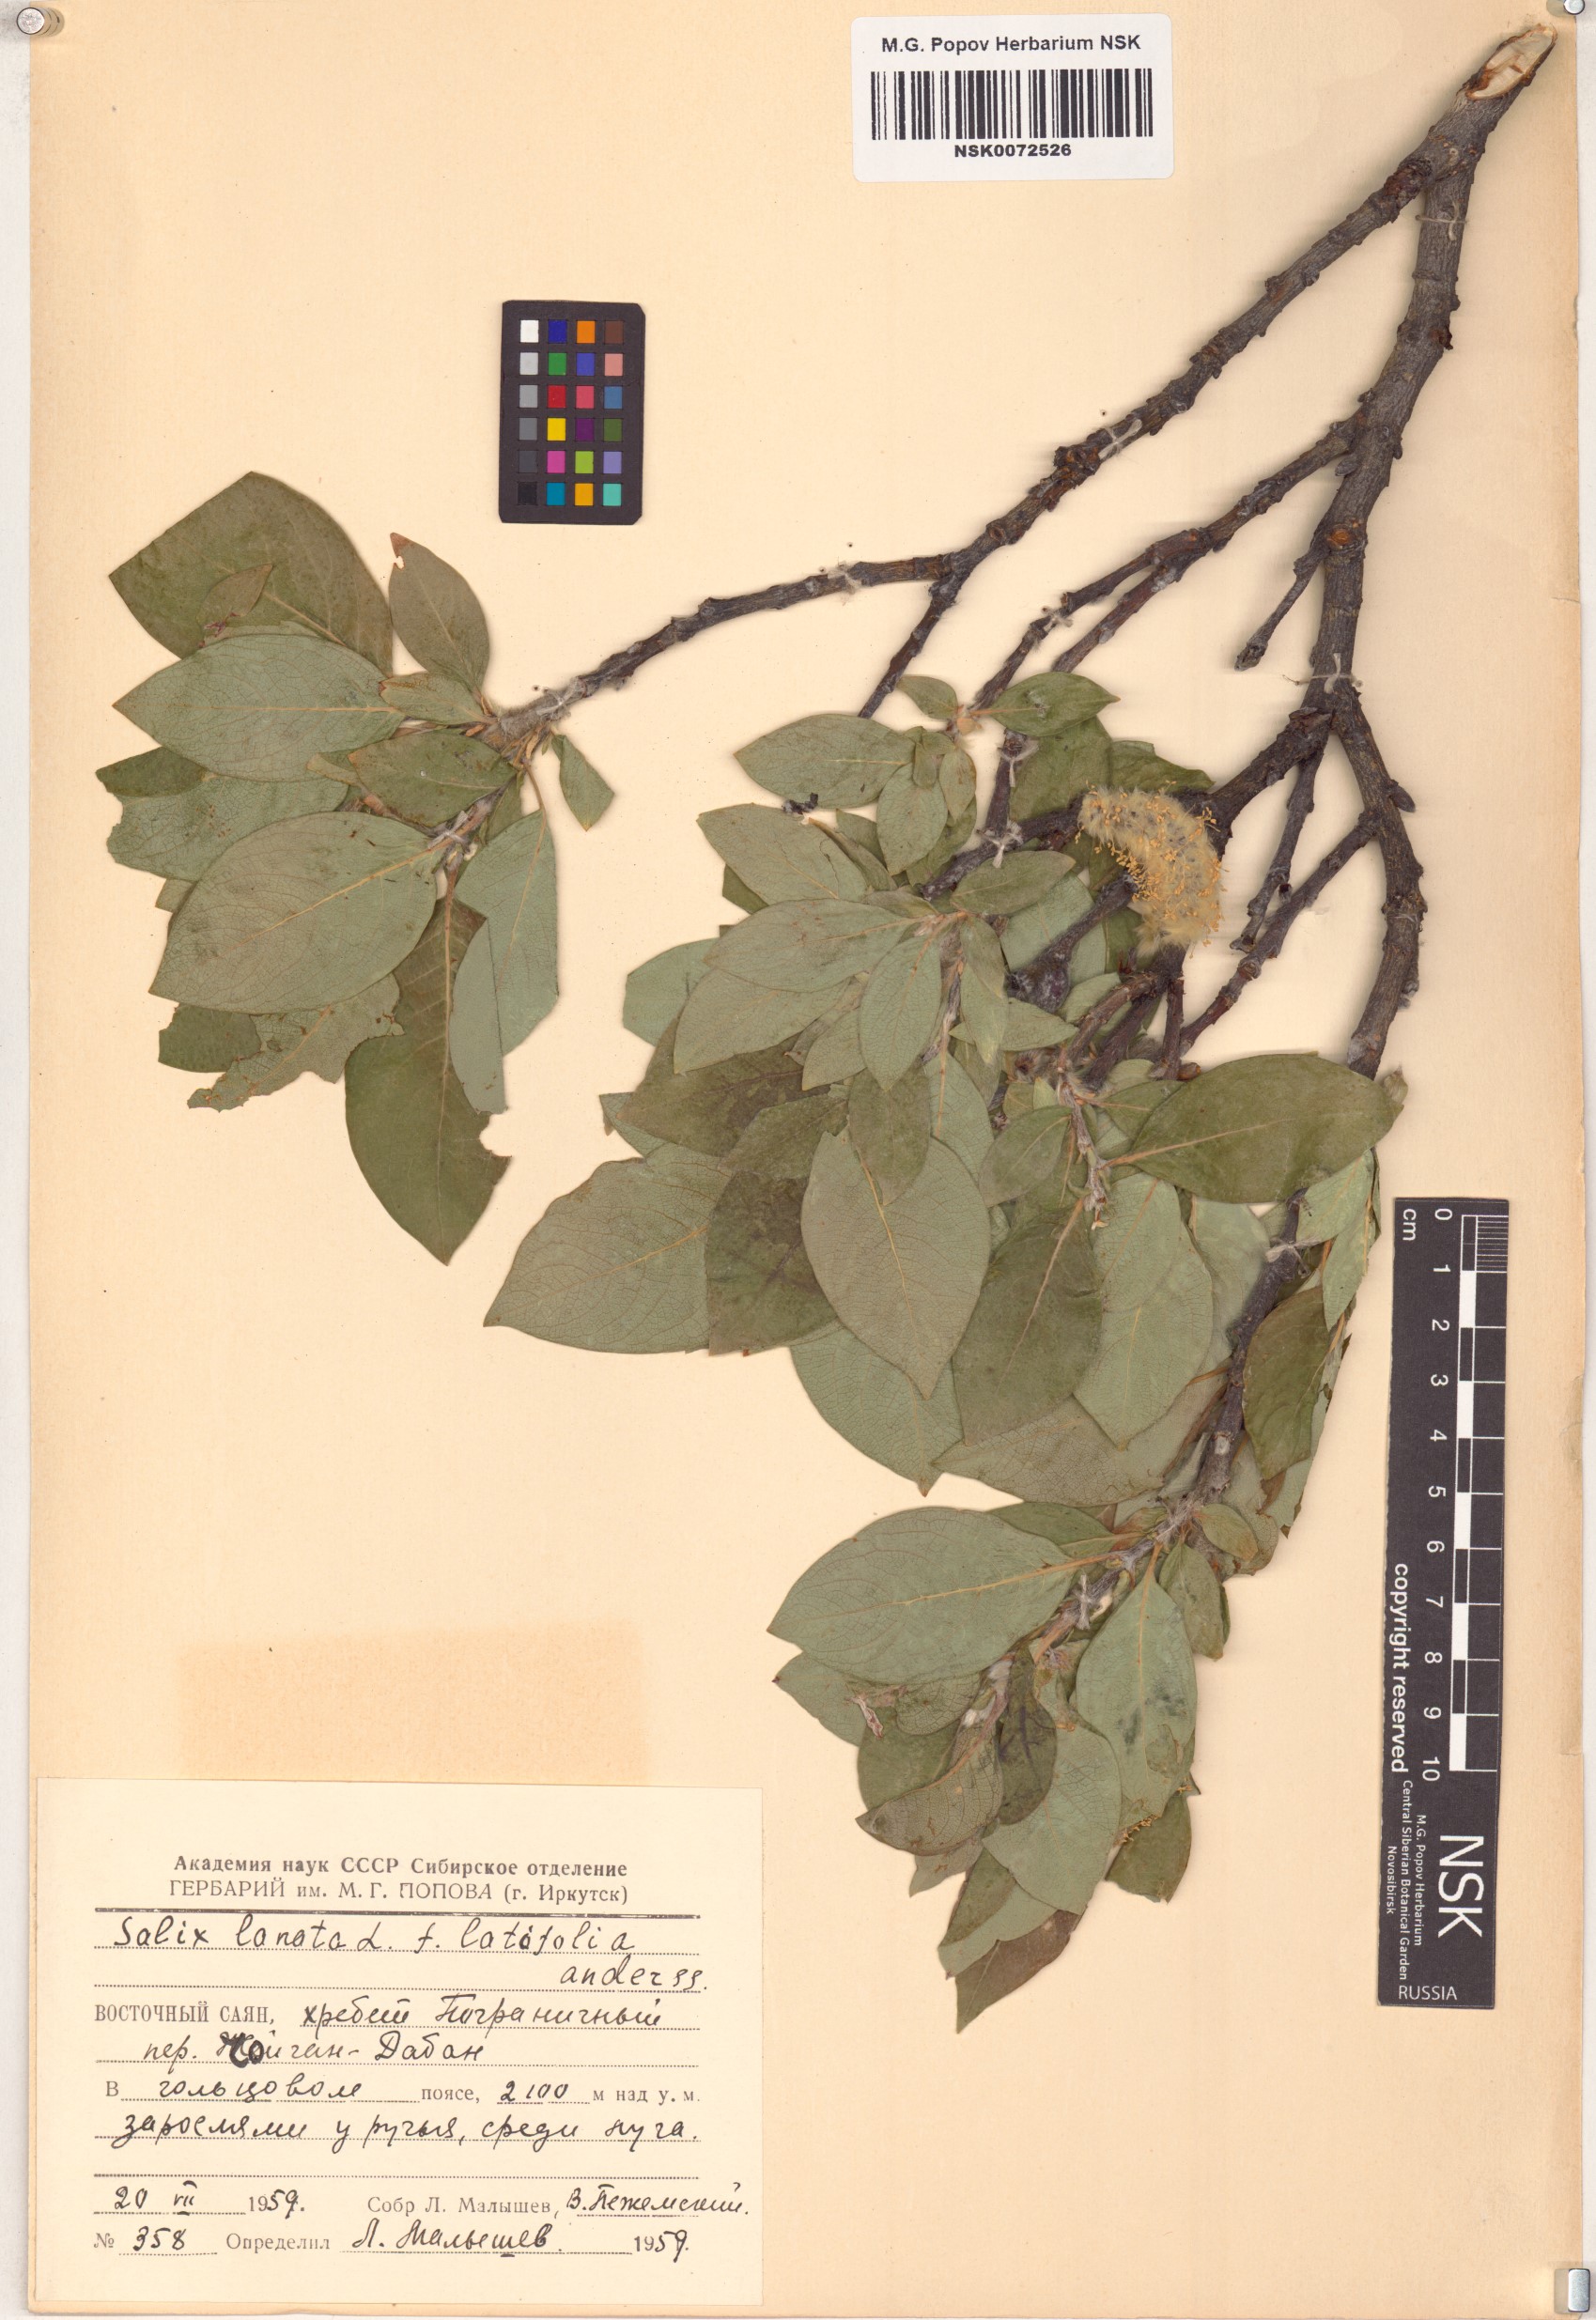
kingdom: Plantae
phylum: Tracheophyta
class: Magnoliopsida
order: Malpighiales
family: Salicaceae
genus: Salix
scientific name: Salix lanata
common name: Woolly willow
